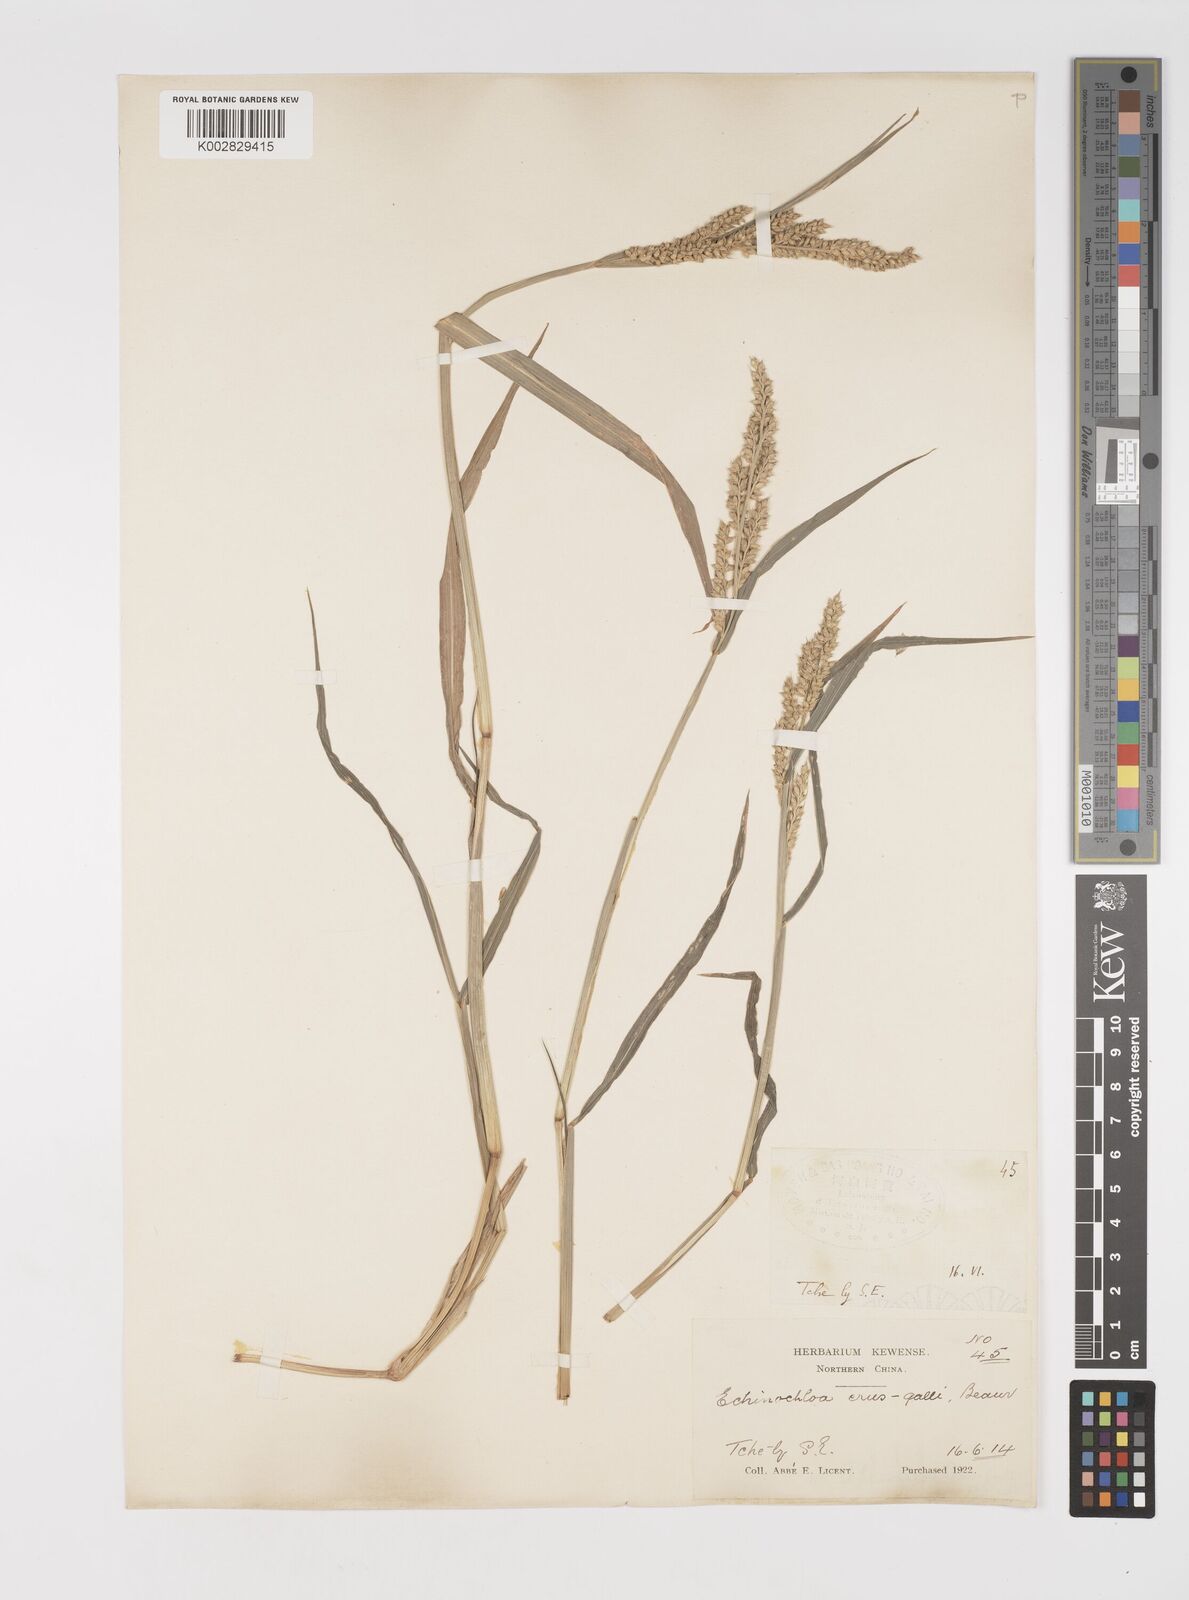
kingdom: Plantae
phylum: Tracheophyta
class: Liliopsida
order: Poales
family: Poaceae
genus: Echinochloa
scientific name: Echinochloa crus-galli
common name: Cockspur
